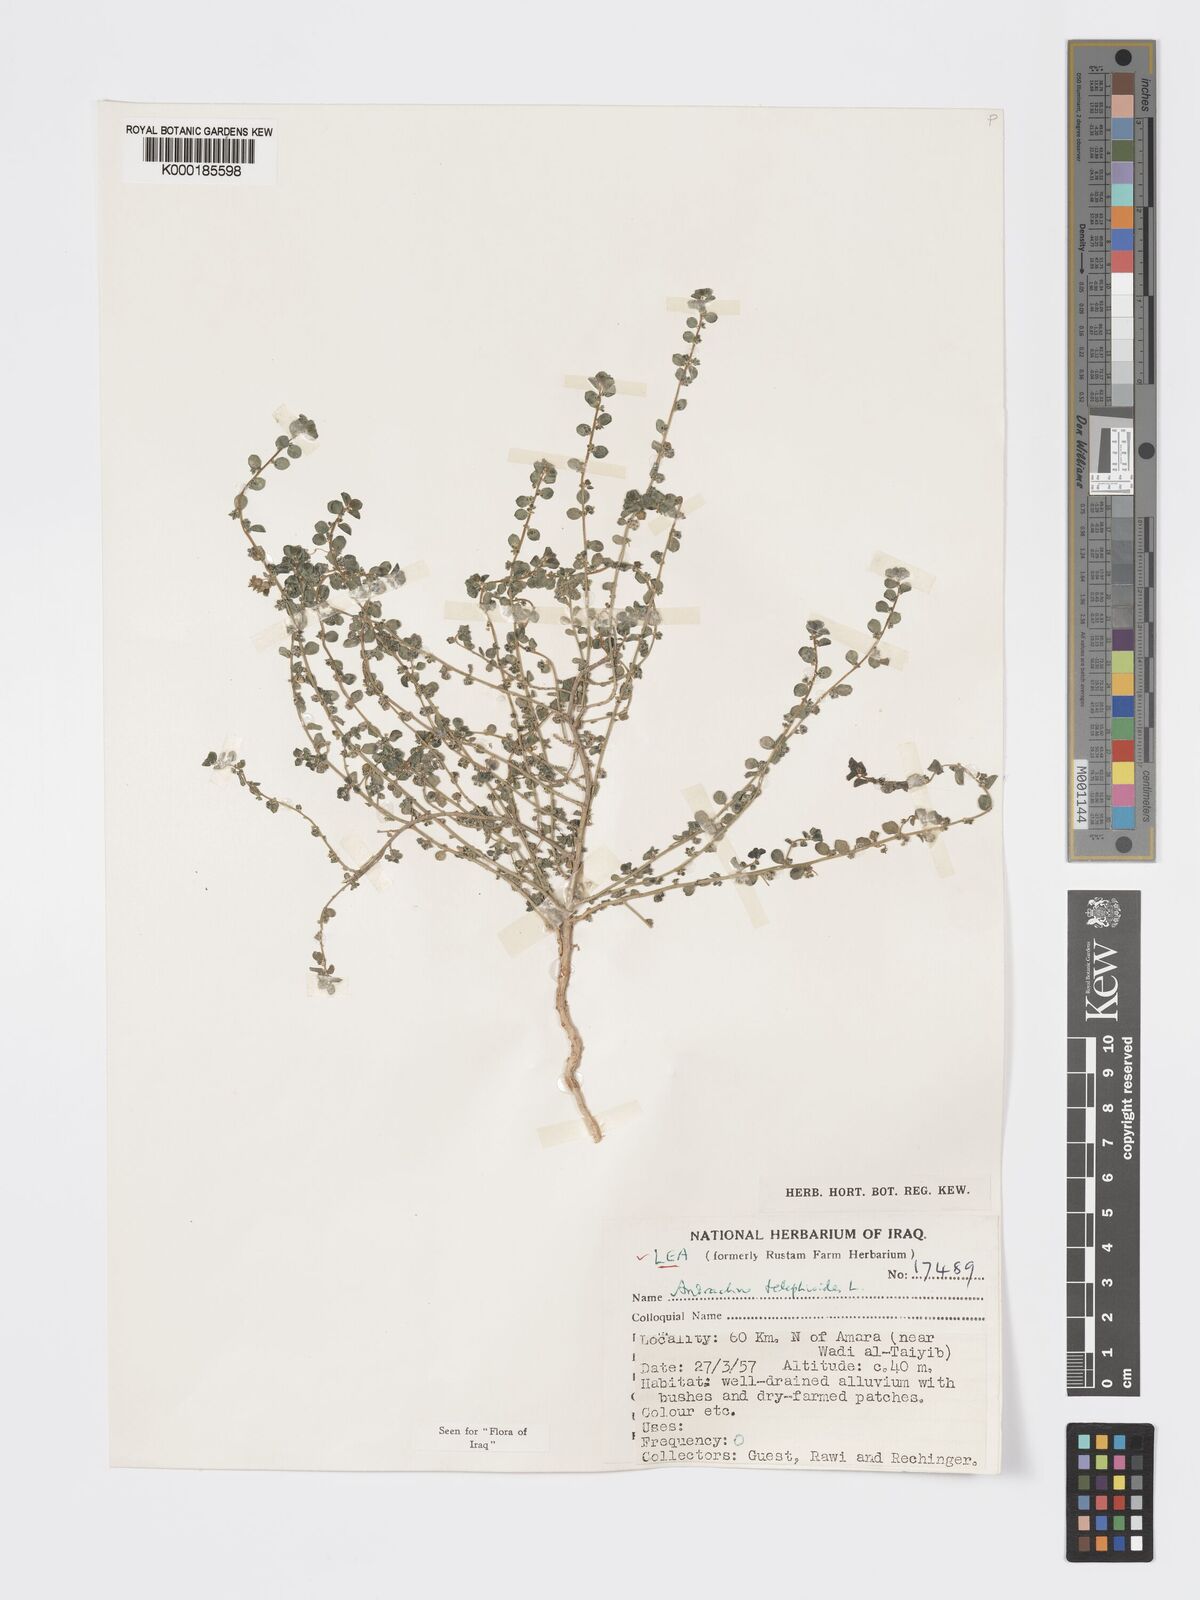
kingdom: Plantae
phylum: Tracheophyta
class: Magnoliopsida
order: Malpighiales
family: Phyllanthaceae
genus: Andrachne
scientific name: Andrachne telephioides
